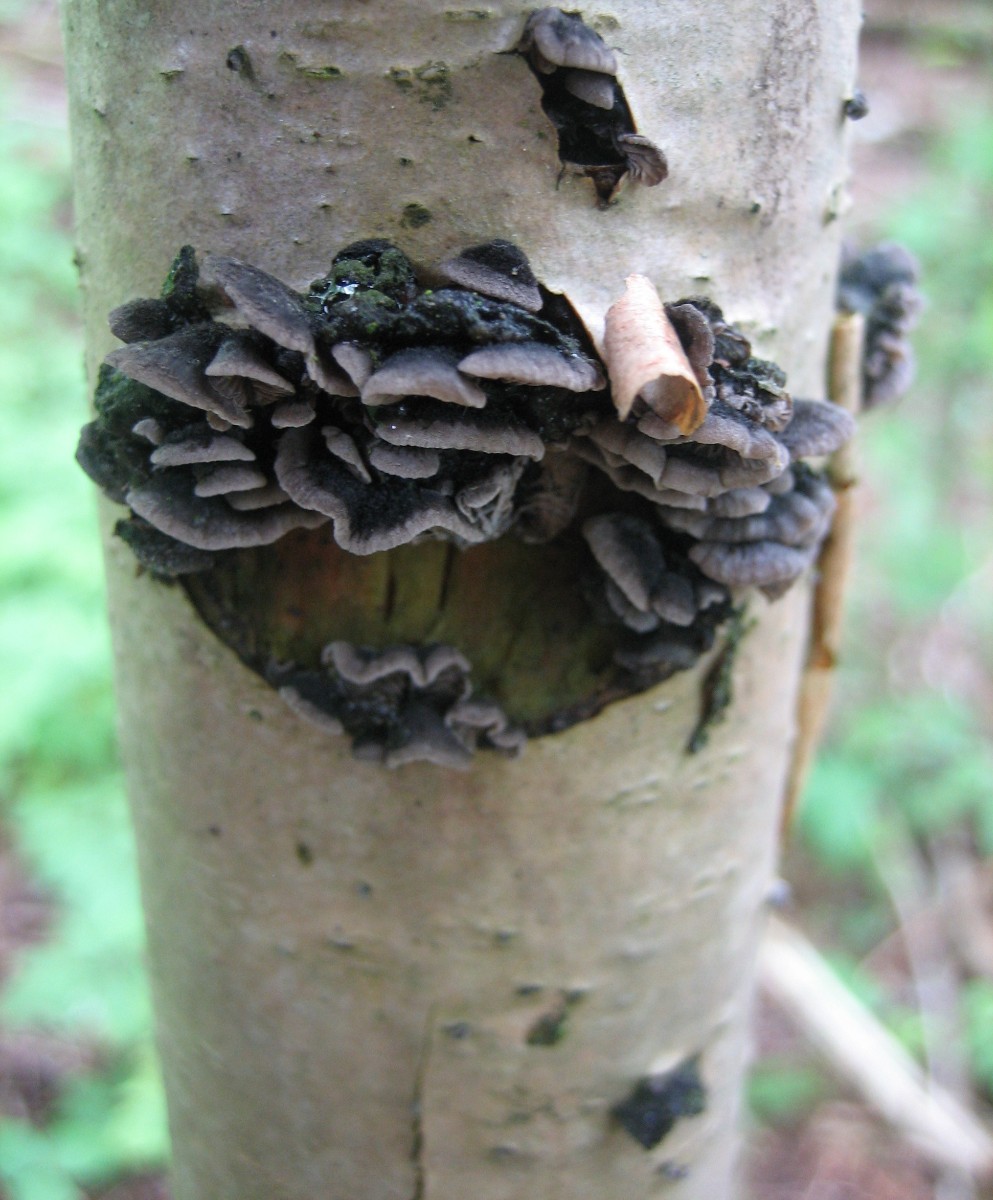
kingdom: Fungi
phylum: Basidiomycota
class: Agaricomycetes
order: Agaricales
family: Pleurotaceae
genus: Resupinatus
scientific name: Resupinatus trichotis
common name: mørkfiltet barkhat
